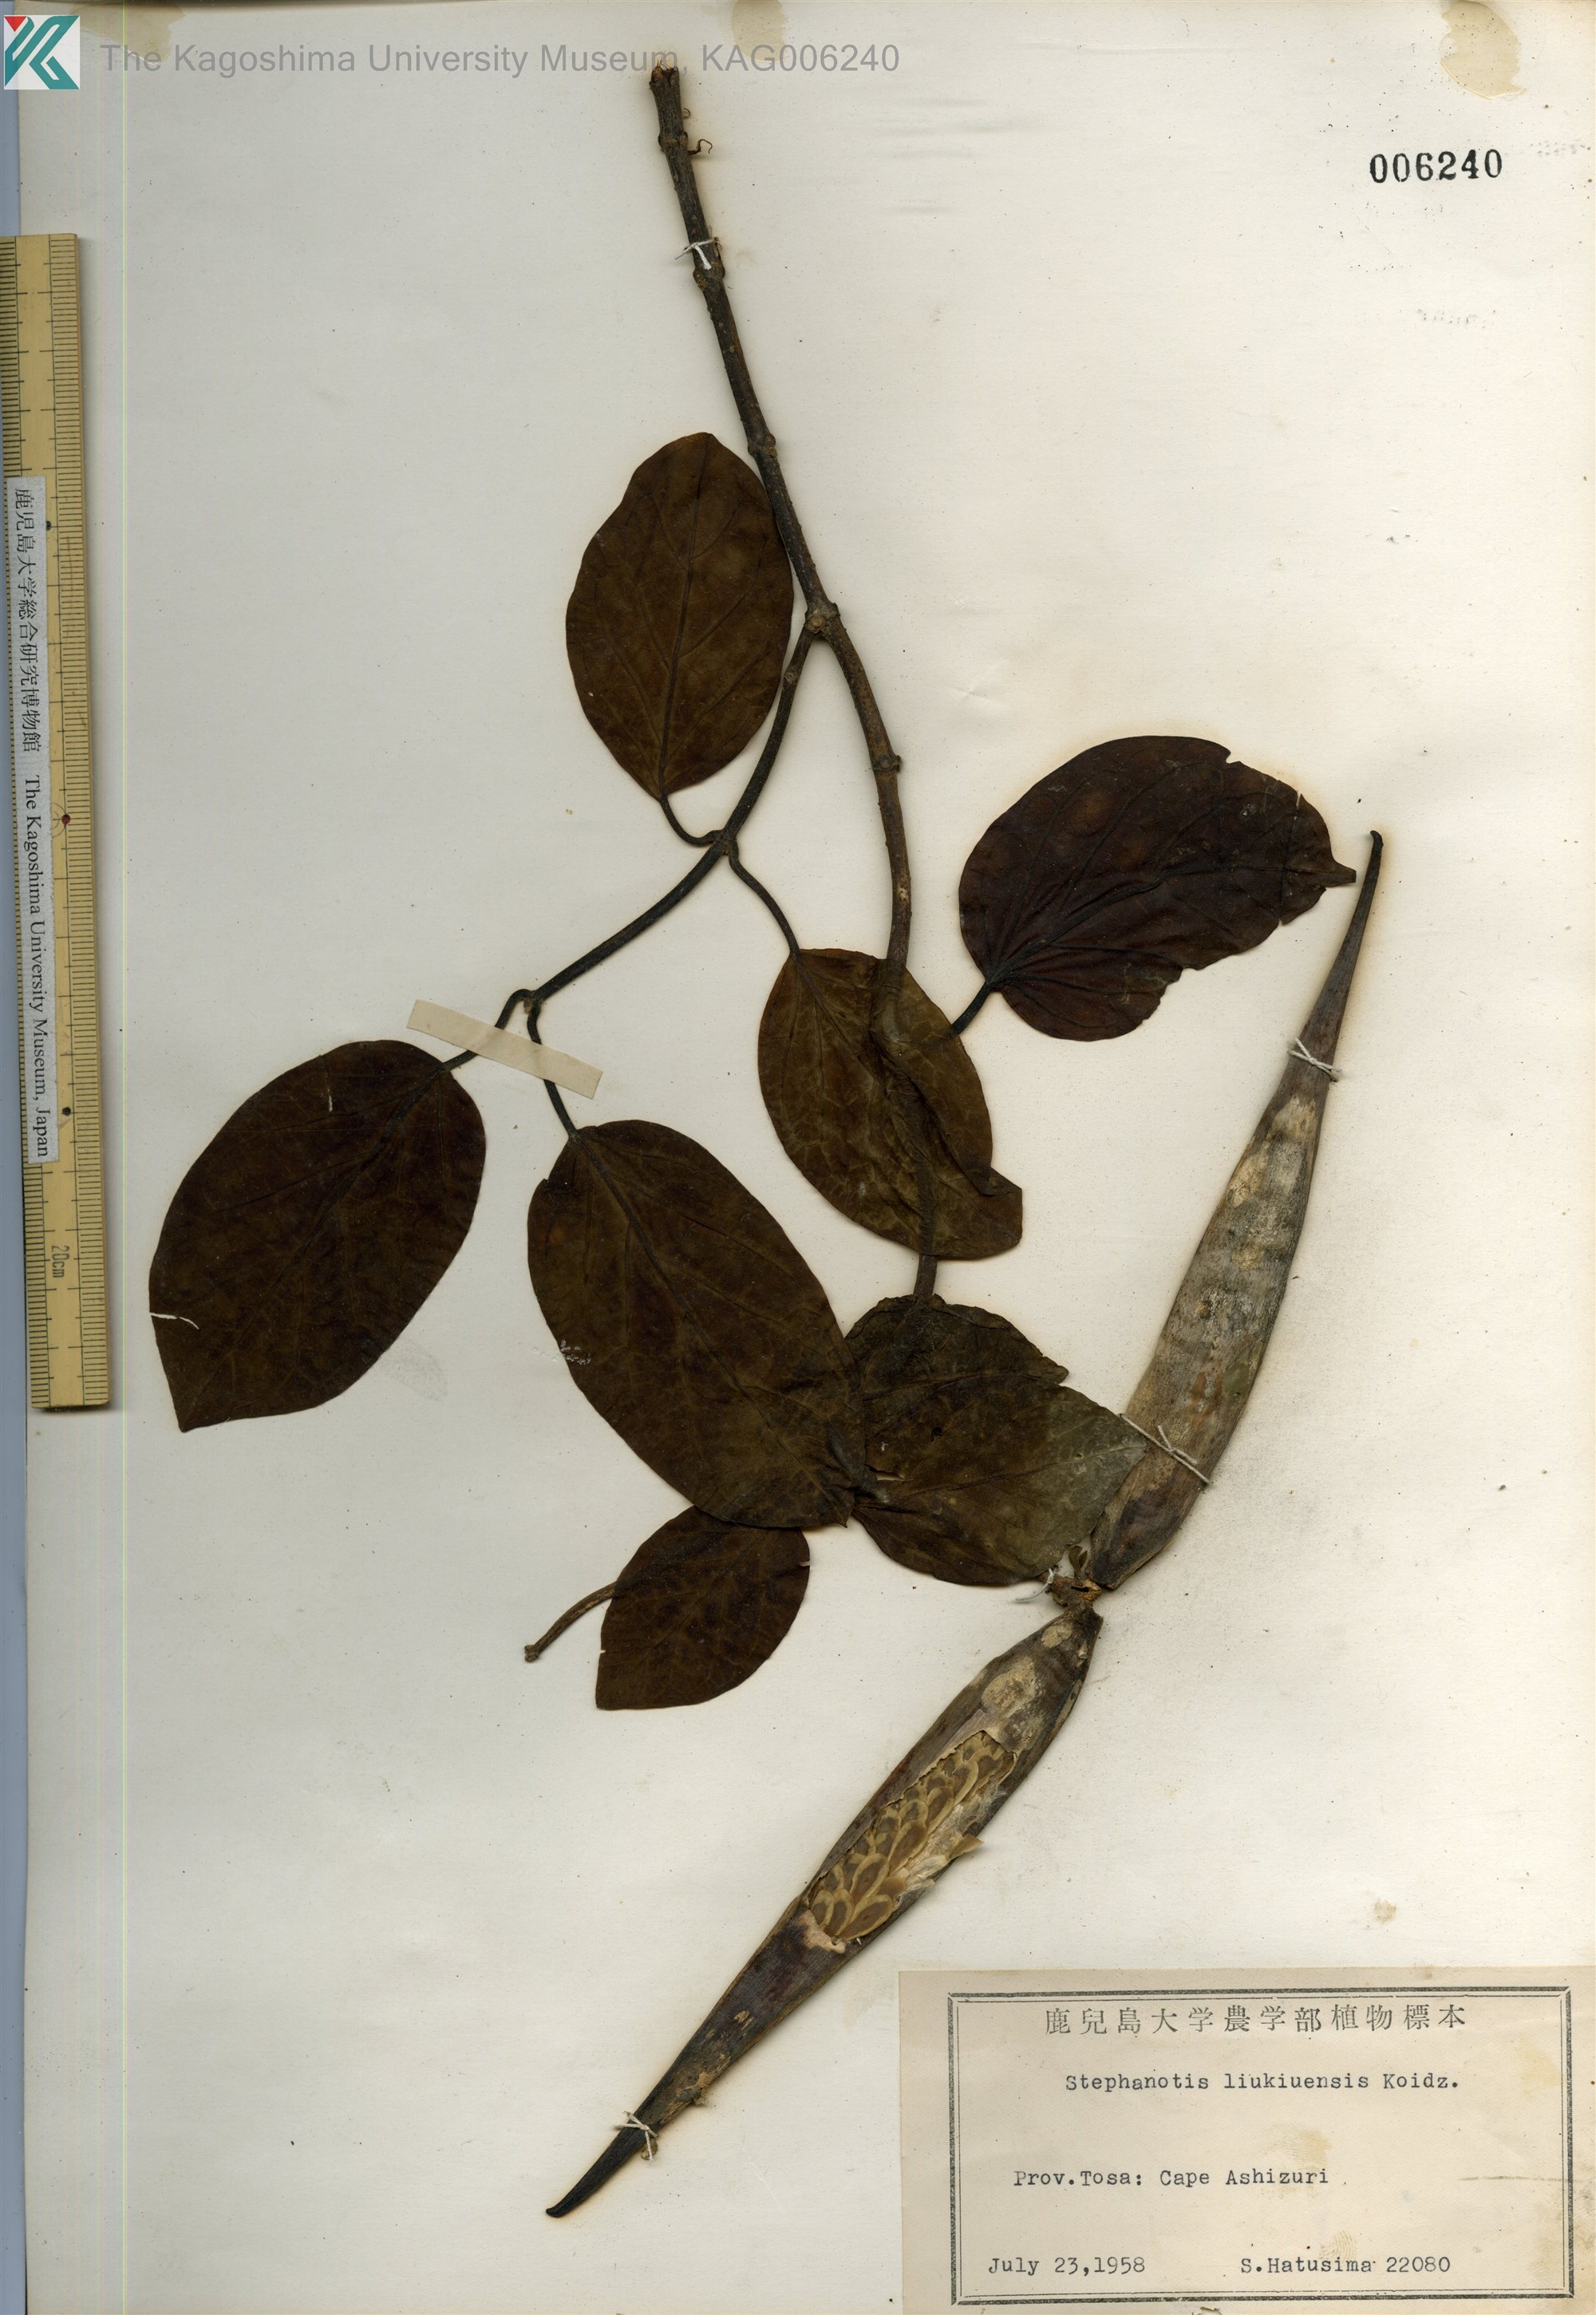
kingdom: Plantae
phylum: Tracheophyta
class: Magnoliopsida
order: Gentianales
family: Apocynaceae
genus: Jasminanthes
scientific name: Jasminanthes mucronata
